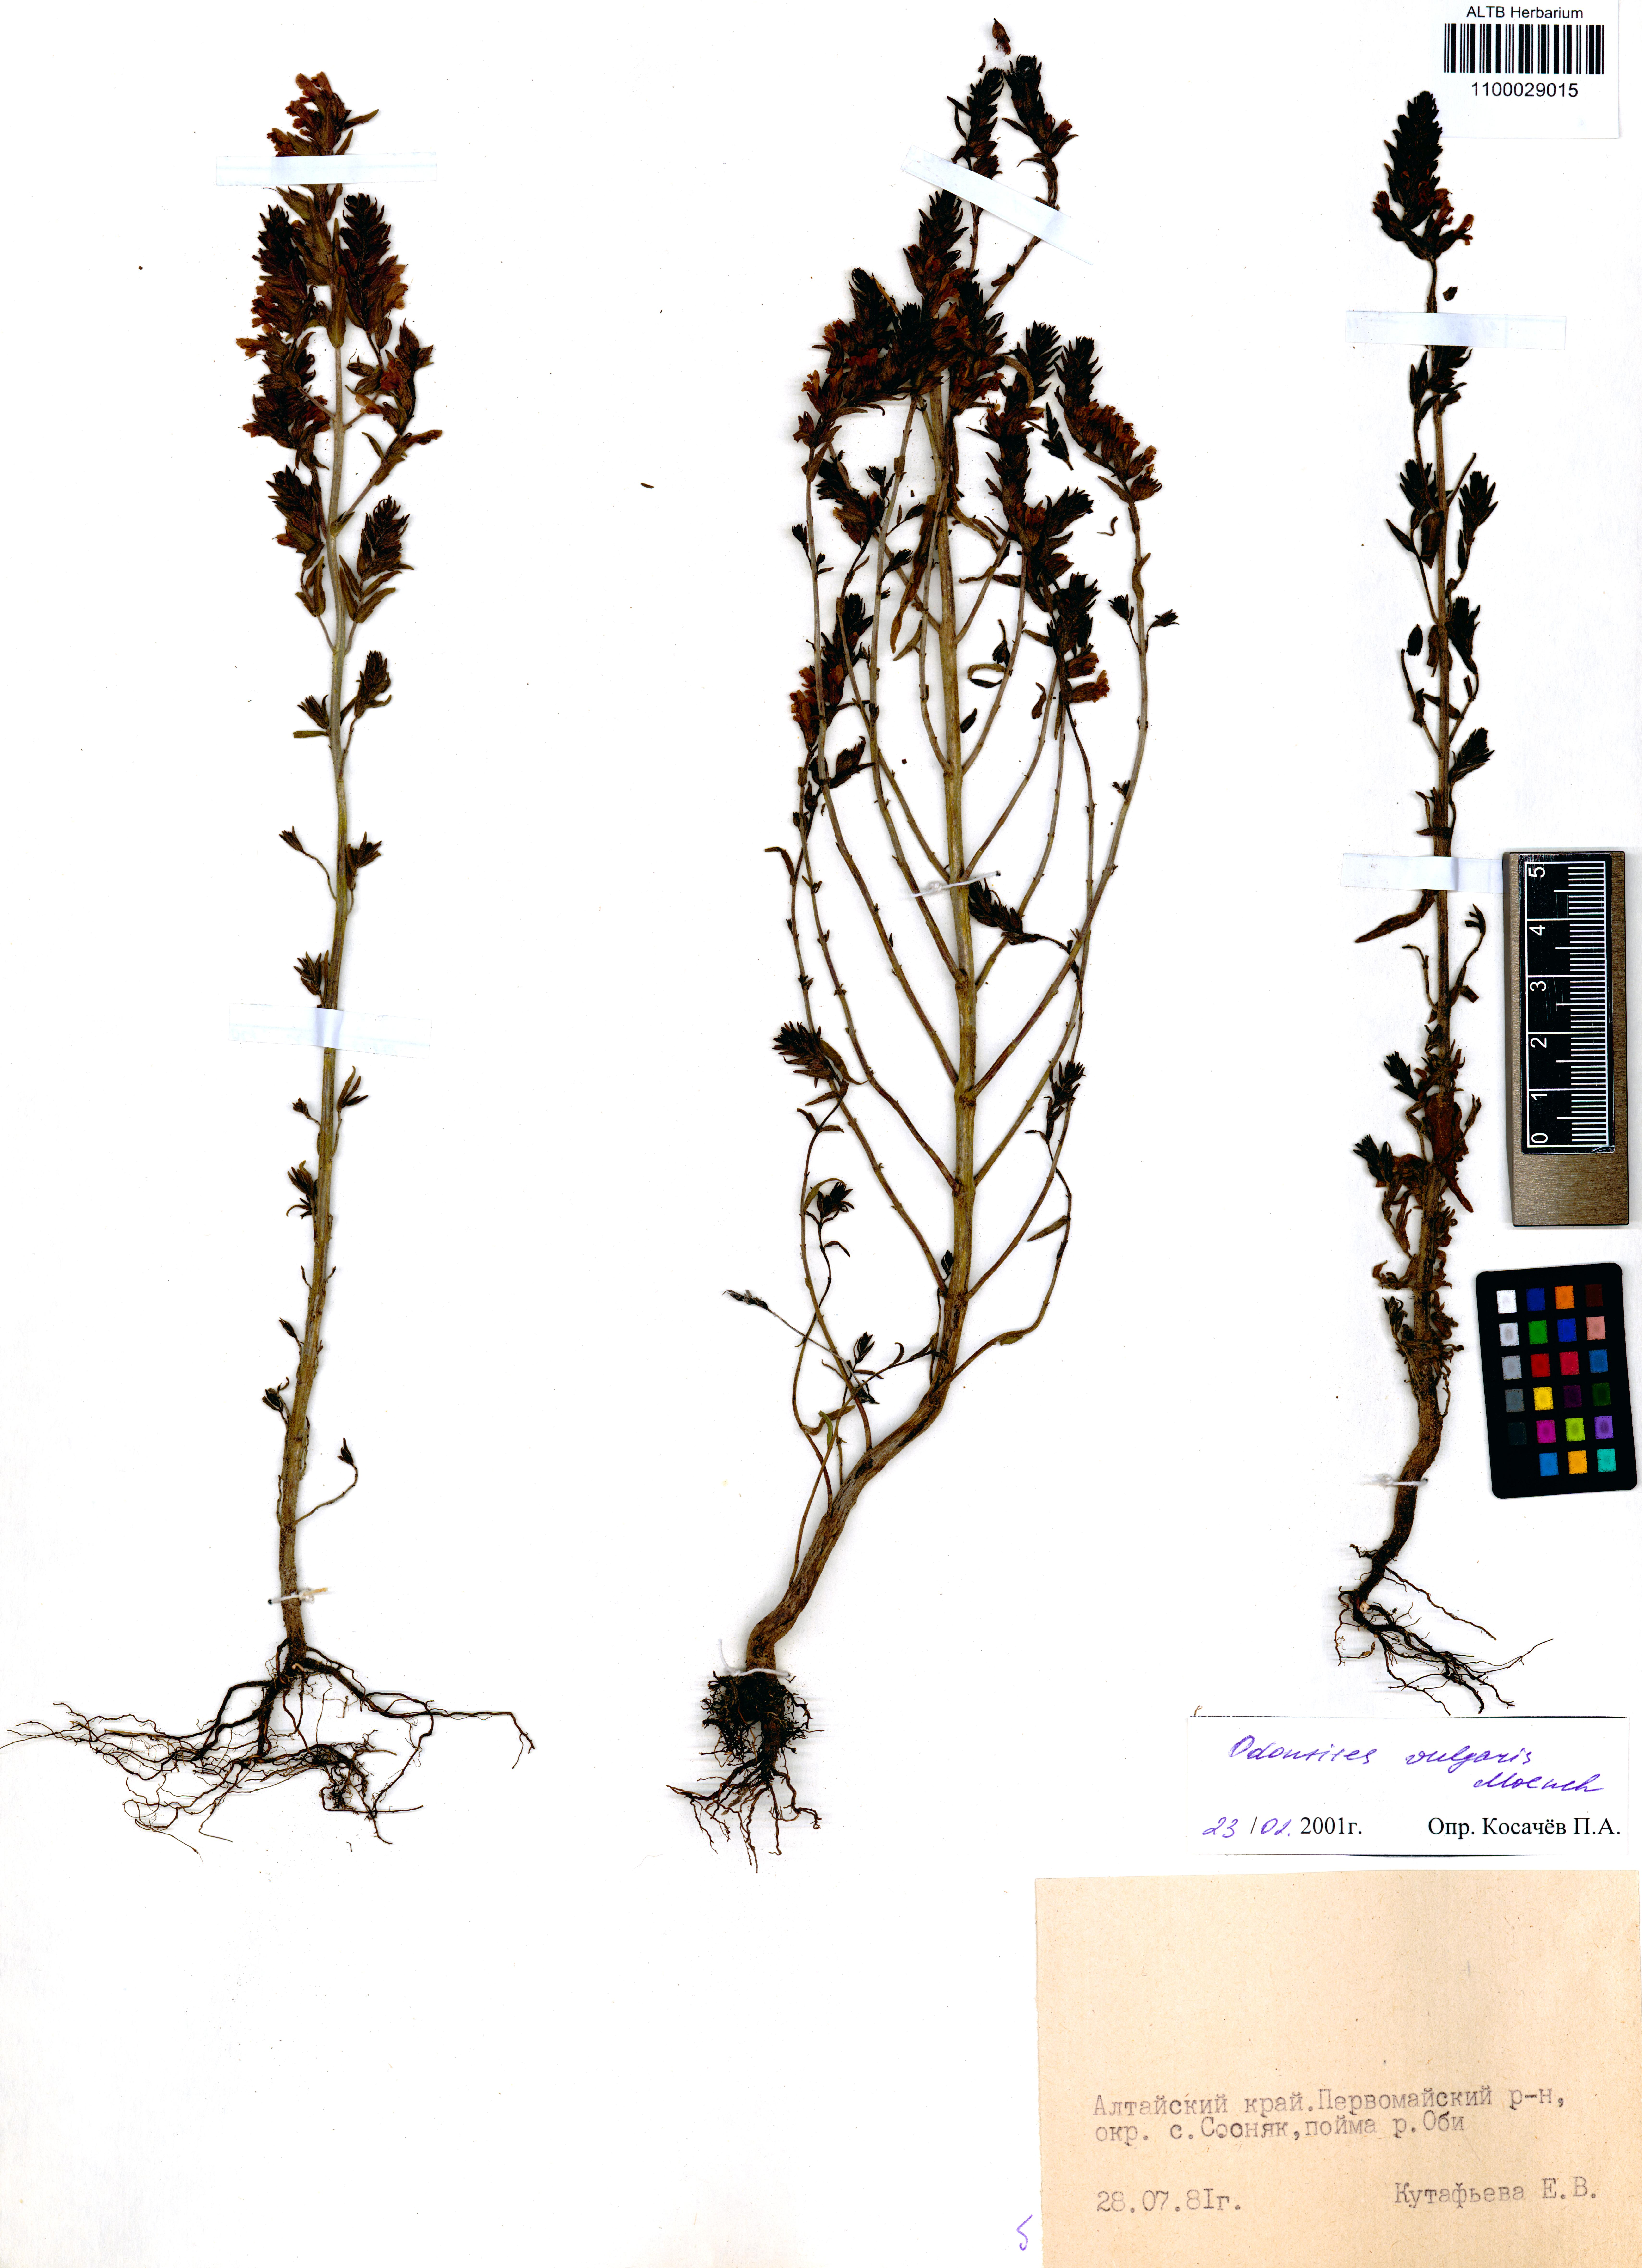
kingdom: Plantae
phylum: Tracheophyta
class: Magnoliopsida
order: Lamiales
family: Orobanchaceae
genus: Odontites
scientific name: Odontites vulgaris
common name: Broomrape
